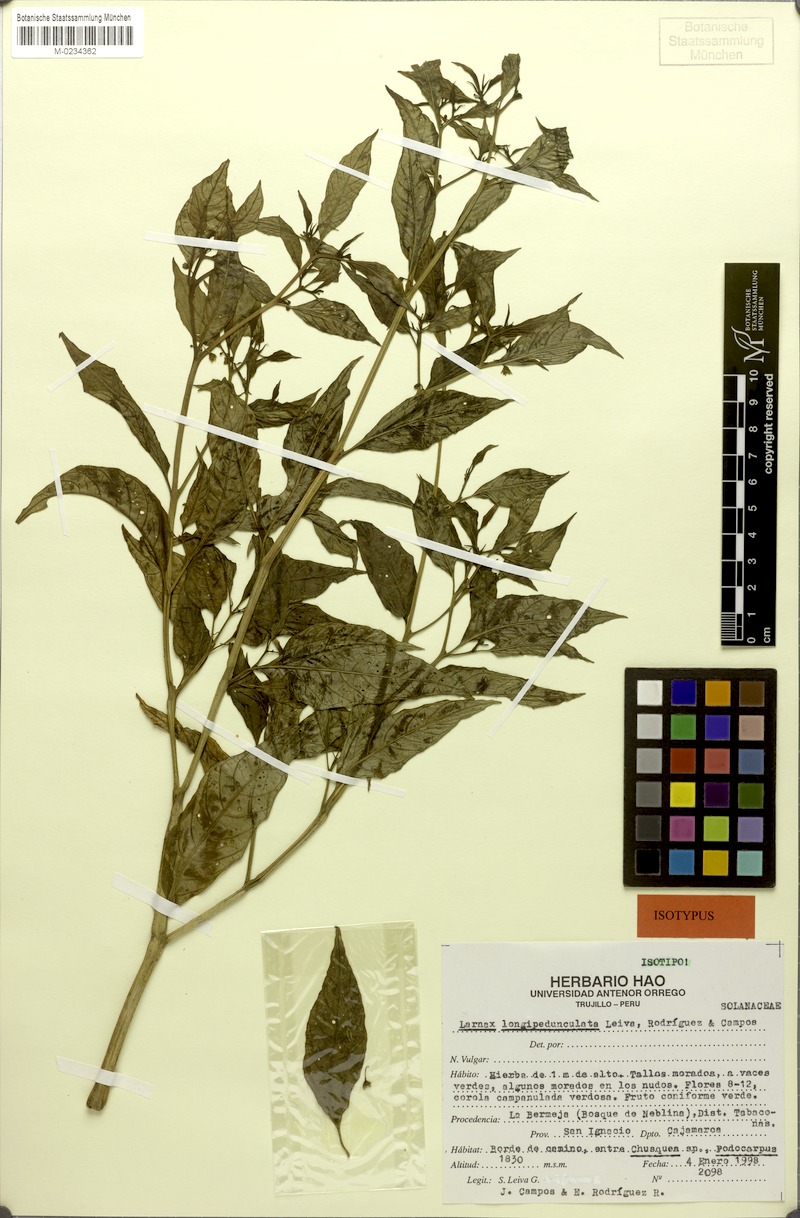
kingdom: Plantae
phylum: Tracheophyta
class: Magnoliopsida
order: Solanales
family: Solanaceae
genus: Deprea
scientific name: Deprea longipedunculata
